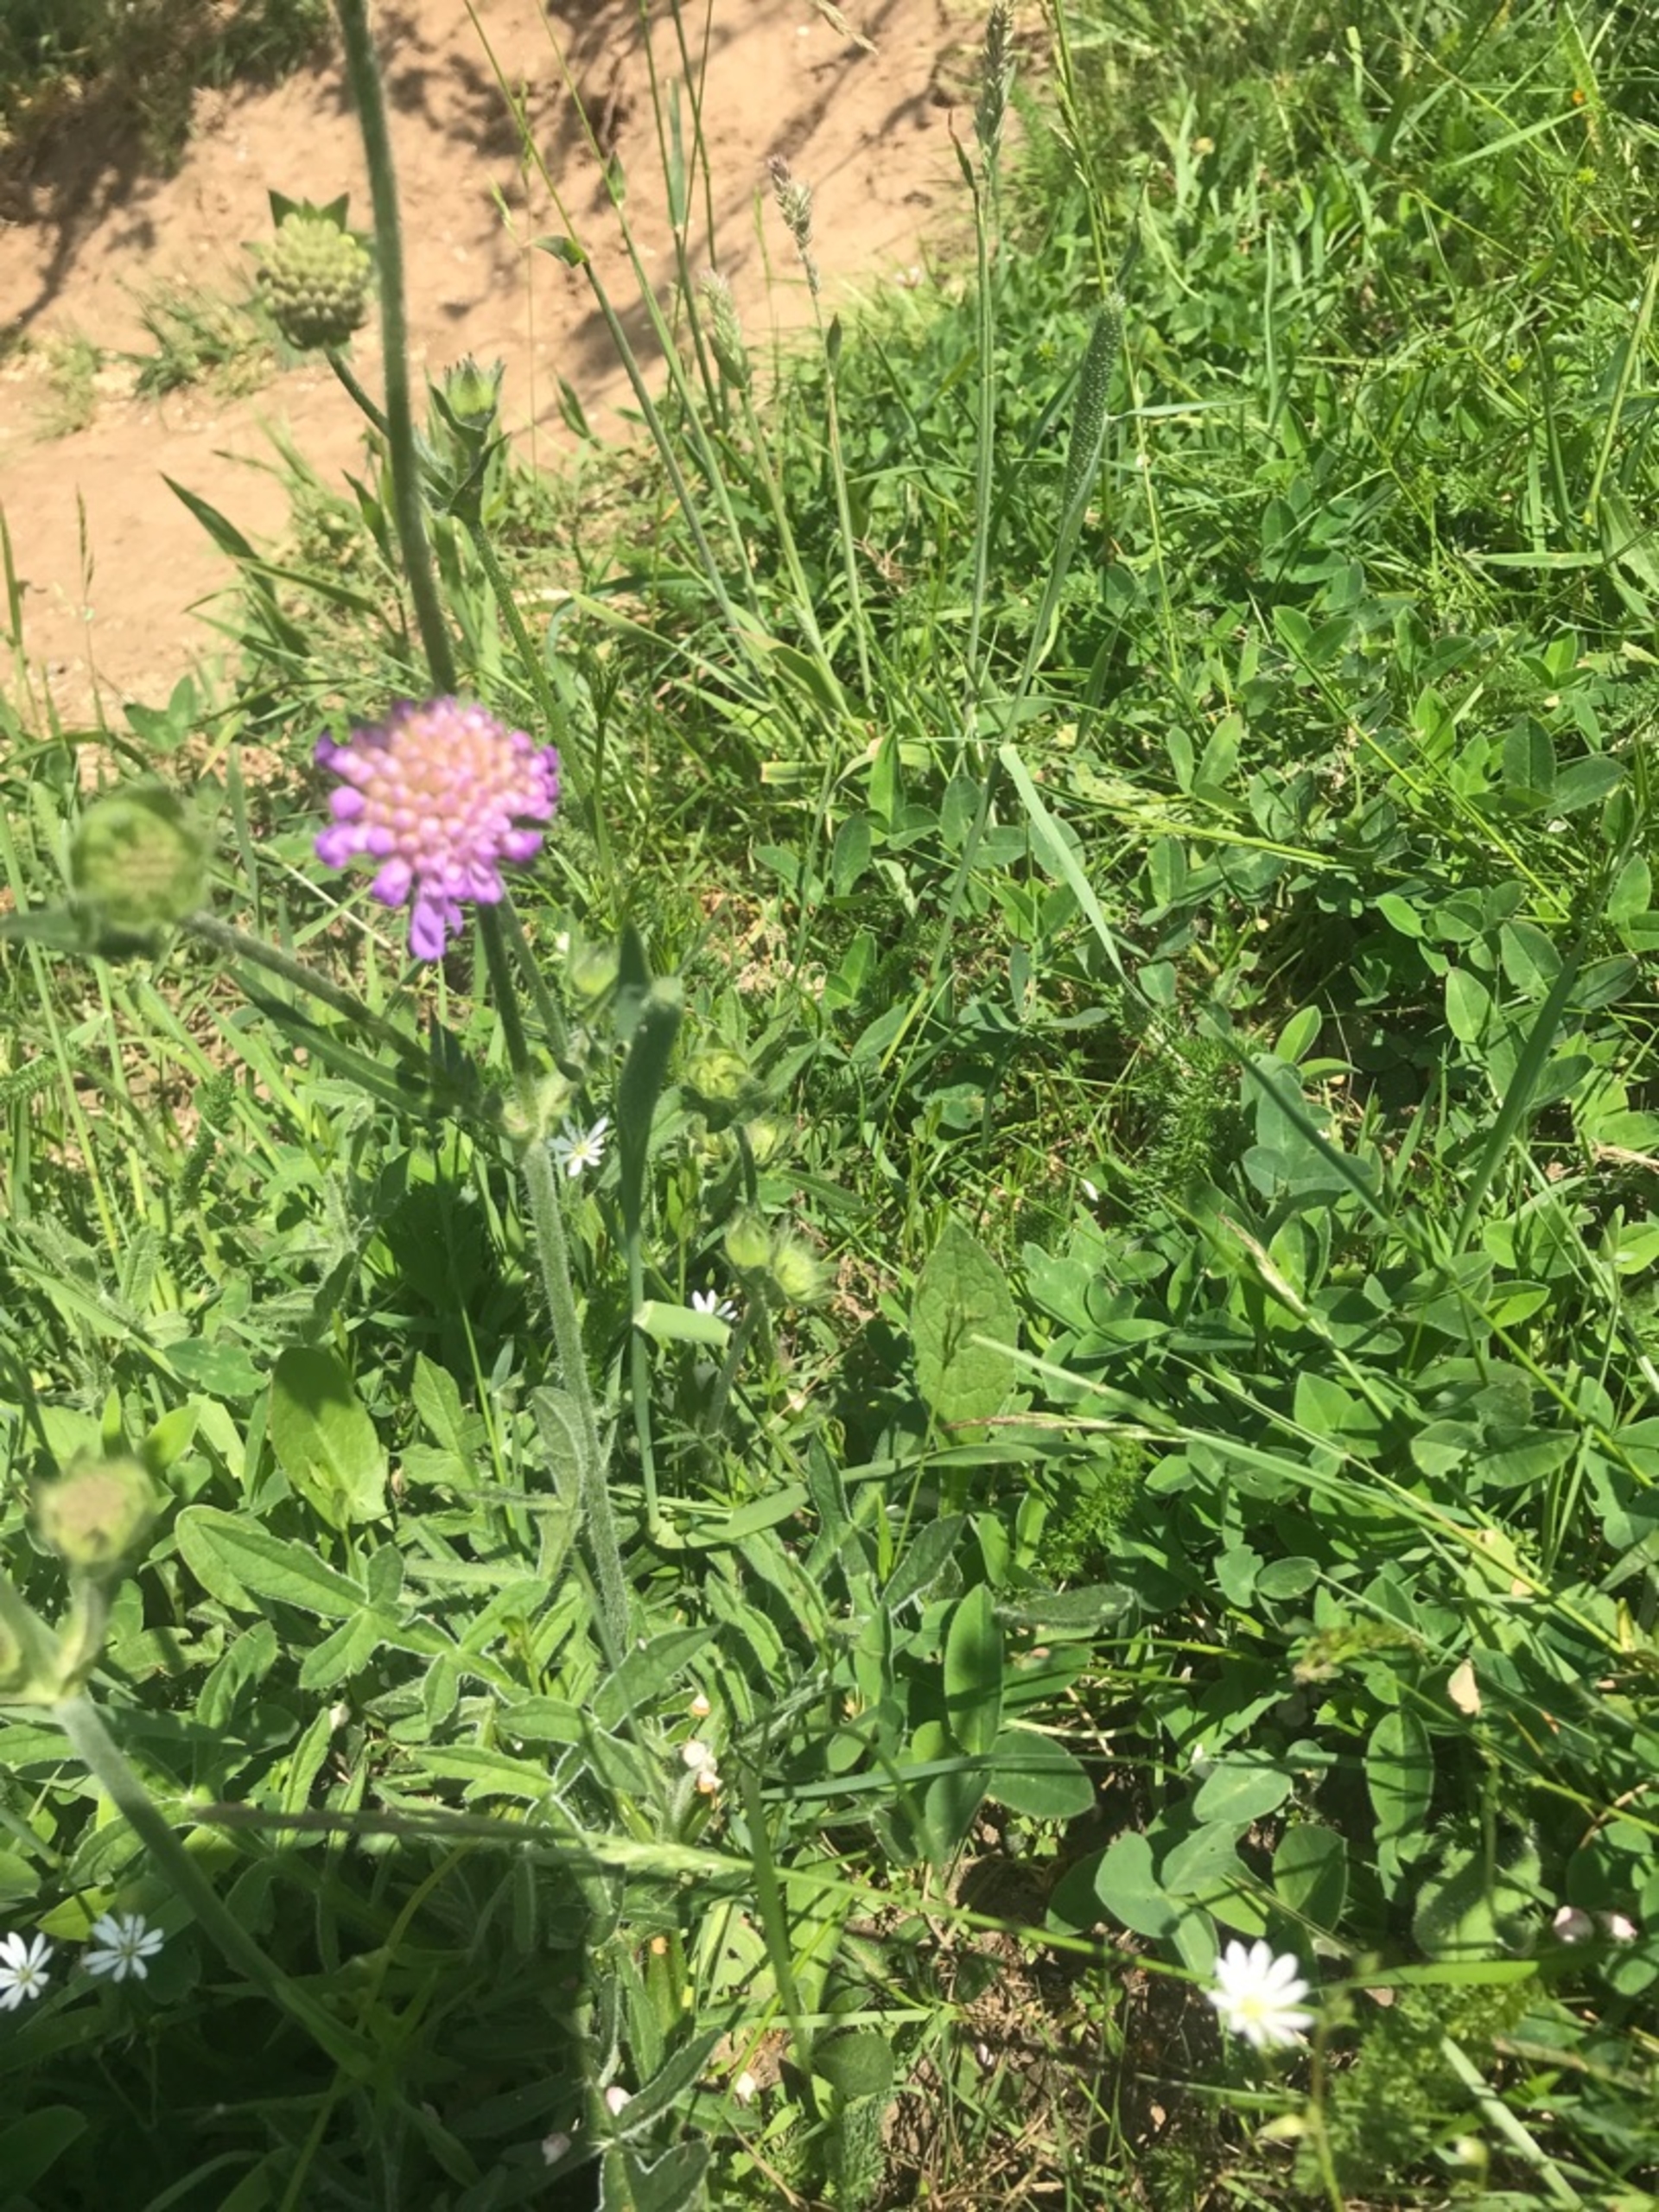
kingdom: Plantae
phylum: Tracheophyta
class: Magnoliopsida
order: Dipsacales
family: Caprifoliaceae
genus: Knautia
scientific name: Knautia arvensis
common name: Blåhat
